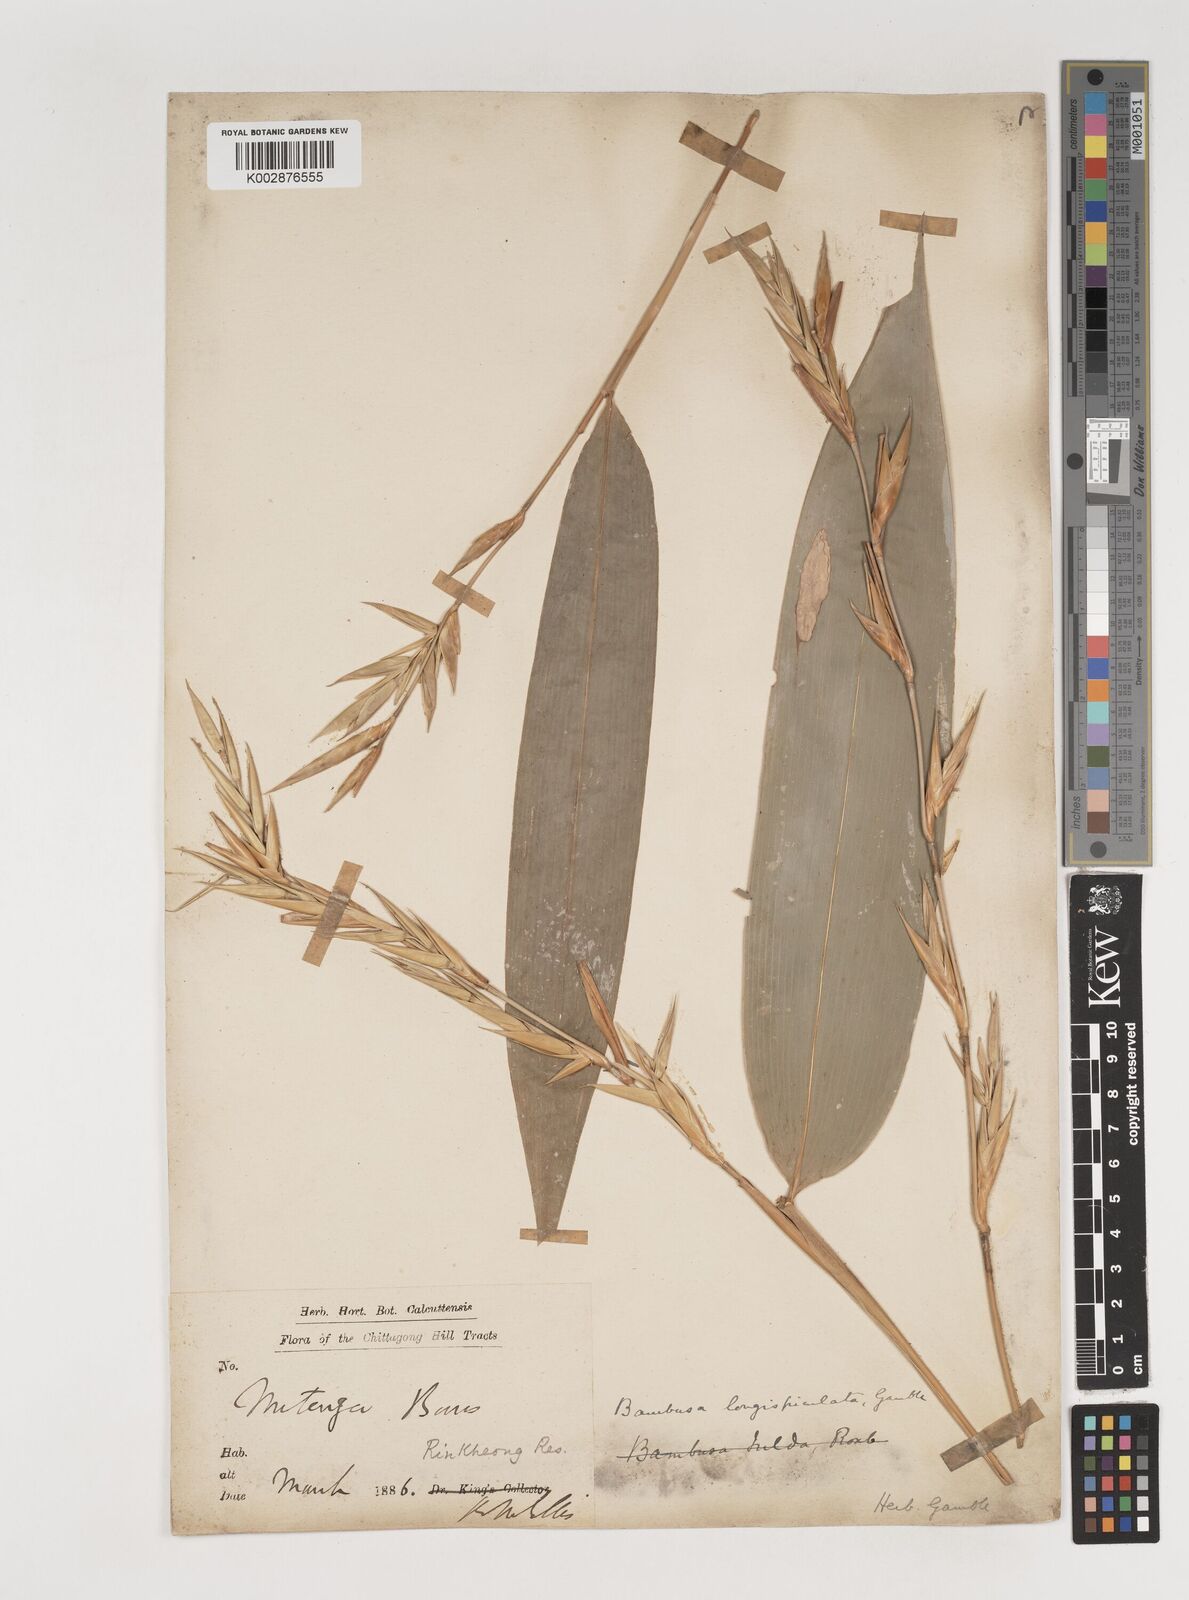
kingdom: Plantae
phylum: Tracheophyta
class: Liliopsida
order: Poales
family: Poaceae
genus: Bambusa
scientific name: Bambusa longispiculata
